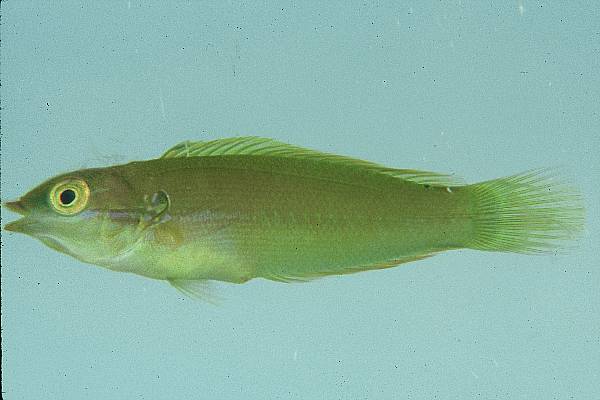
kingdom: Animalia
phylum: Chordata
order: Perciformes
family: Labridae
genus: Coris
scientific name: Coris caudimacula
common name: Spottail coris
